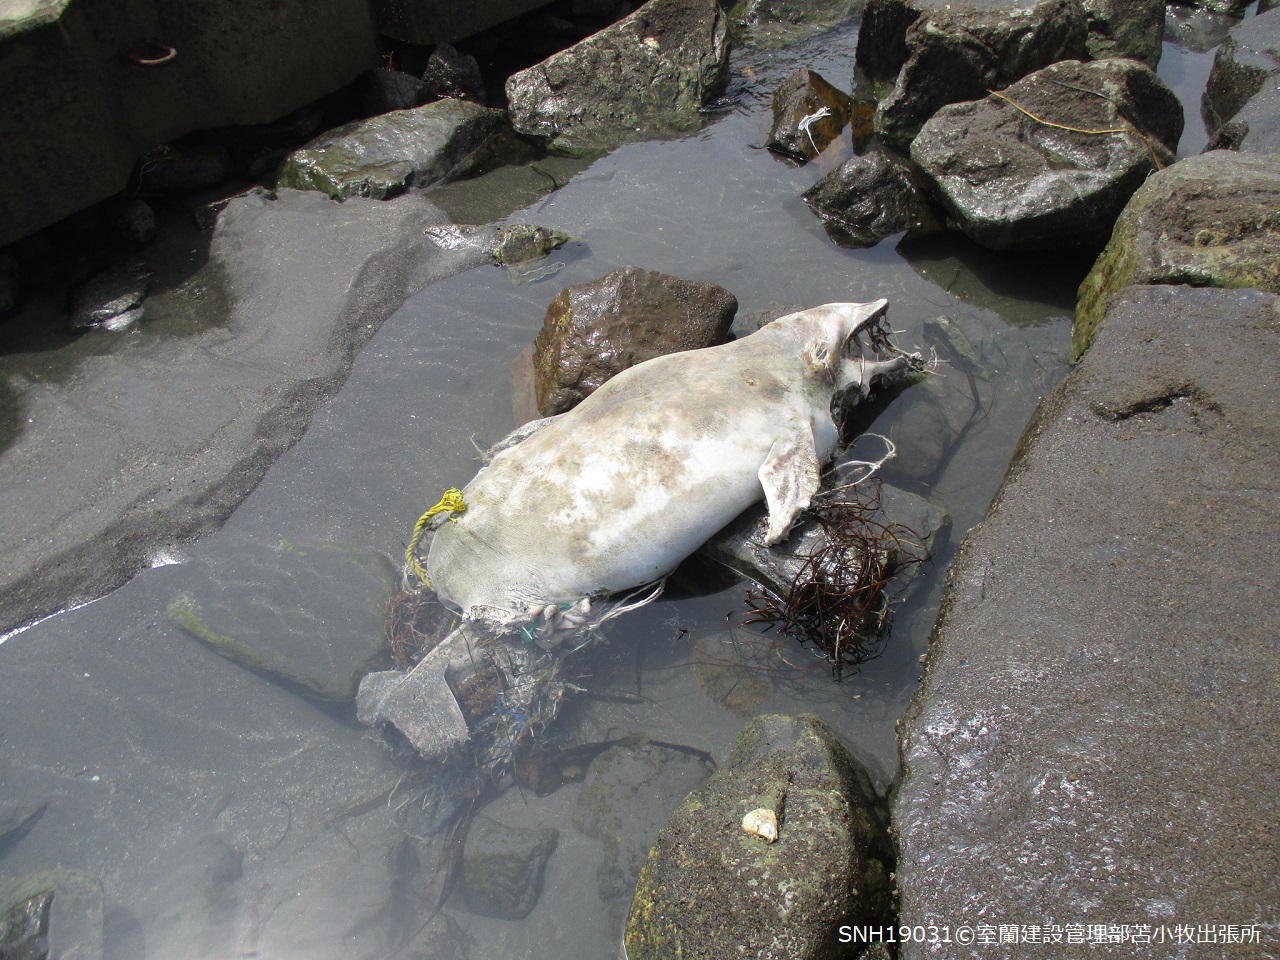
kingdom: Animalia
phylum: Chordata
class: Mammalia
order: Cetacea
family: Delphinidae
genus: Lagenorhynchus
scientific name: Lagenorhynchus obliquidens
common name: Pacific white-sided dolphin
